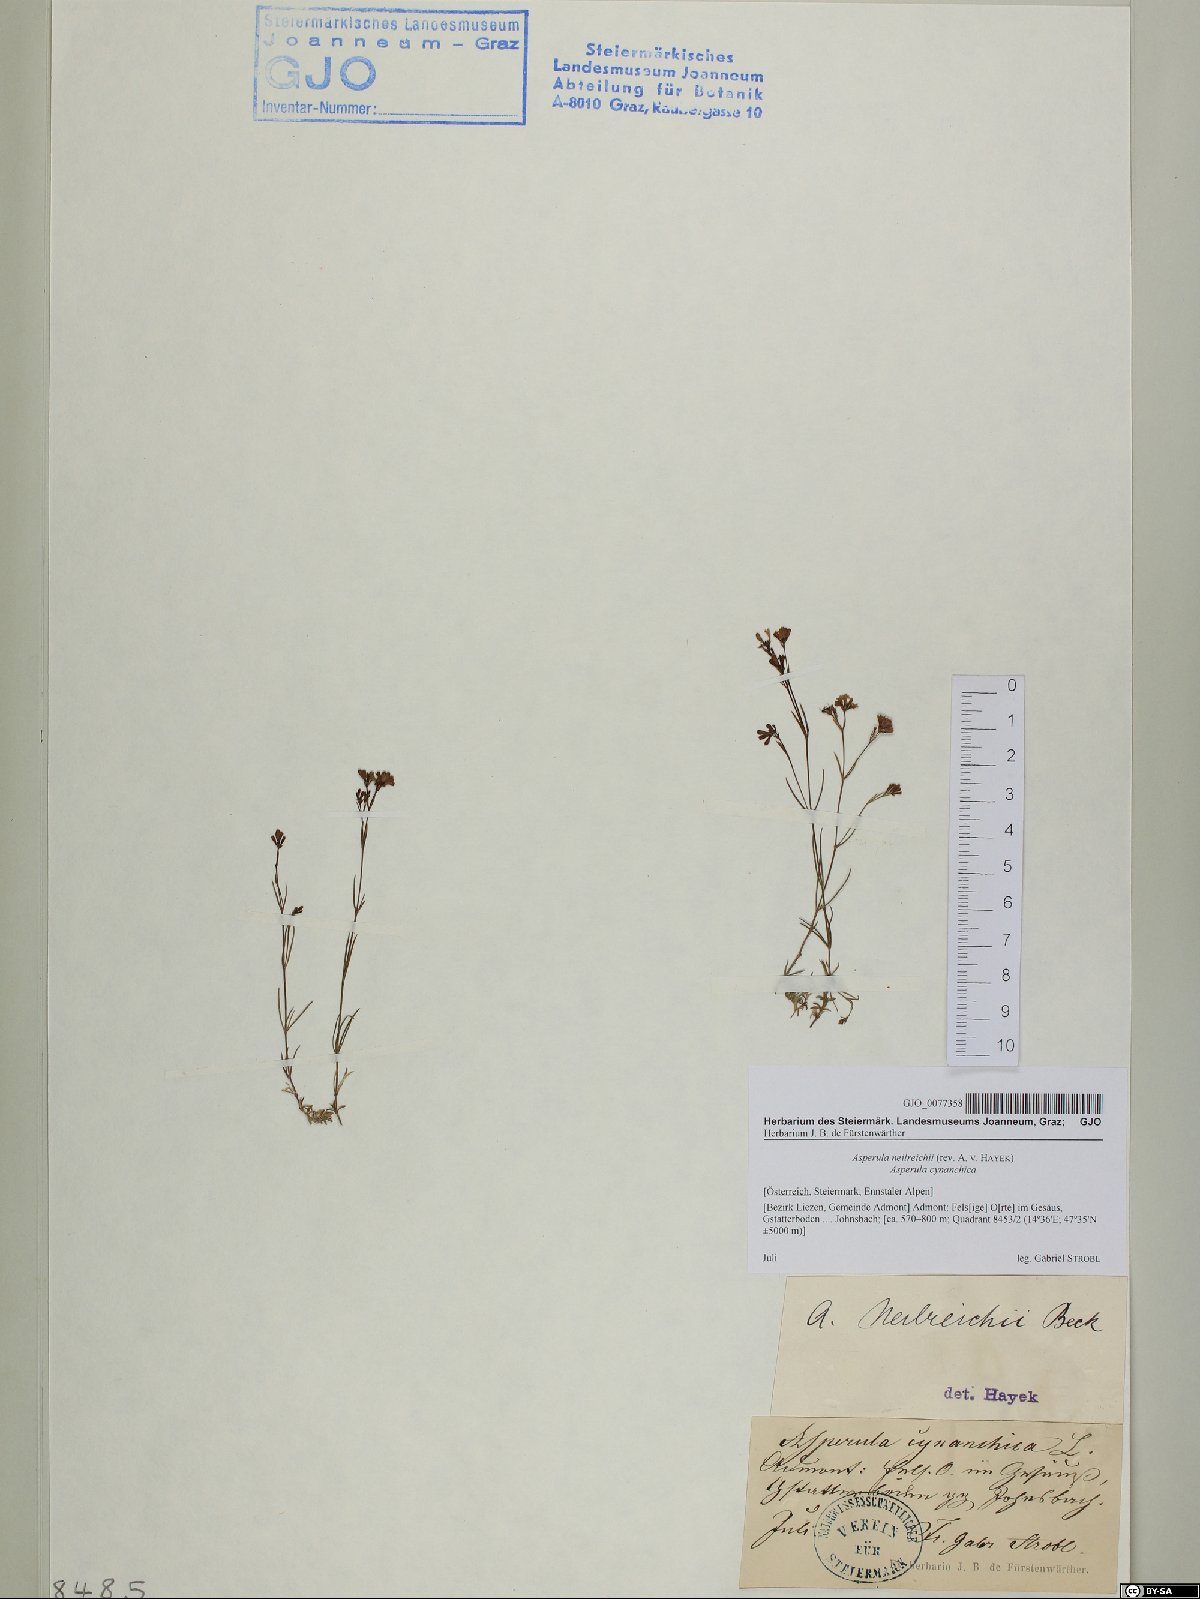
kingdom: Plantae
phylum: Tracheophyta
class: Magnoliopsida
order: Gentianales
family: Rubiaceae
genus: Cynanchica
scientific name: Cynanchica neilreichii
